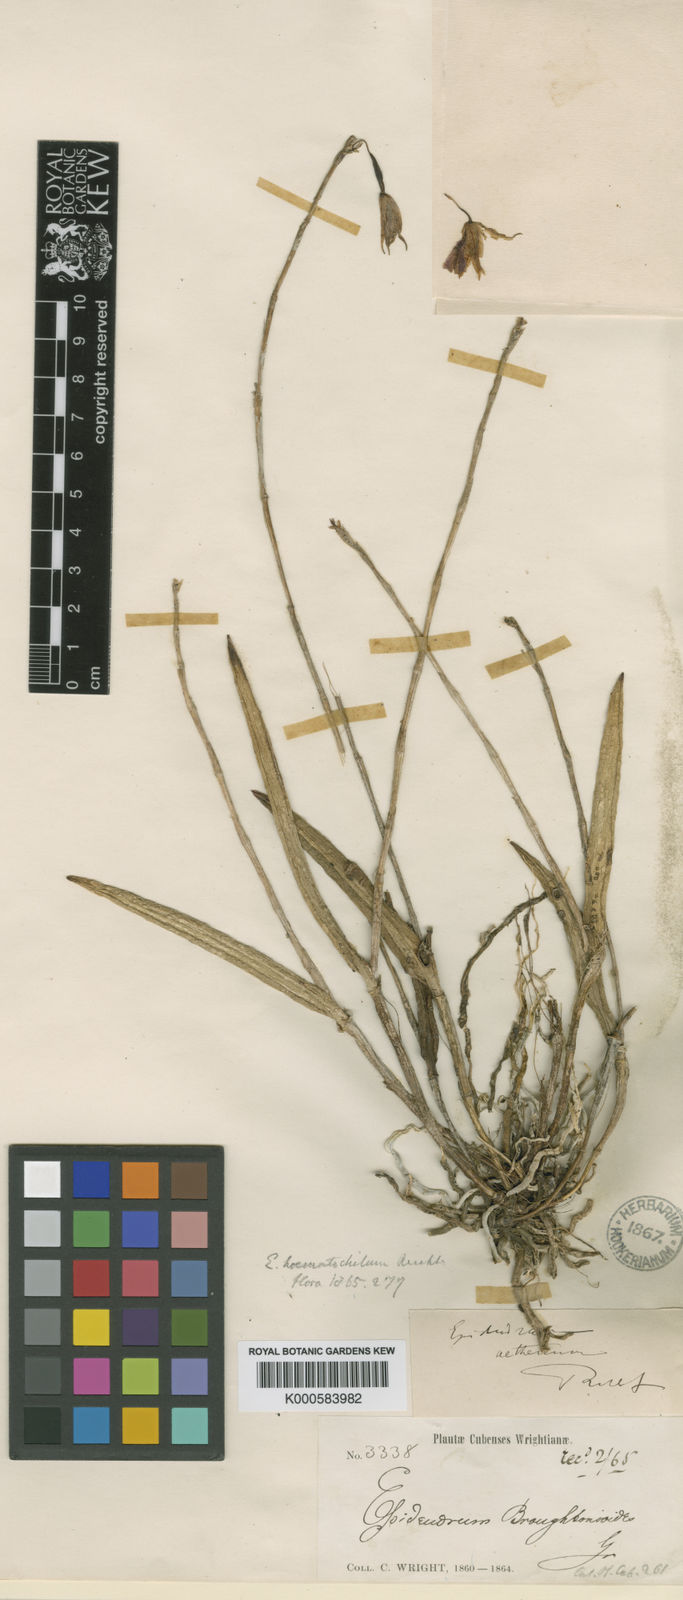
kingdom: Plantae
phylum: Tracheophyta
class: Liliopsida
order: Asparagales
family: Orchidaceae
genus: Domingoa
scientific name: Domingoa
